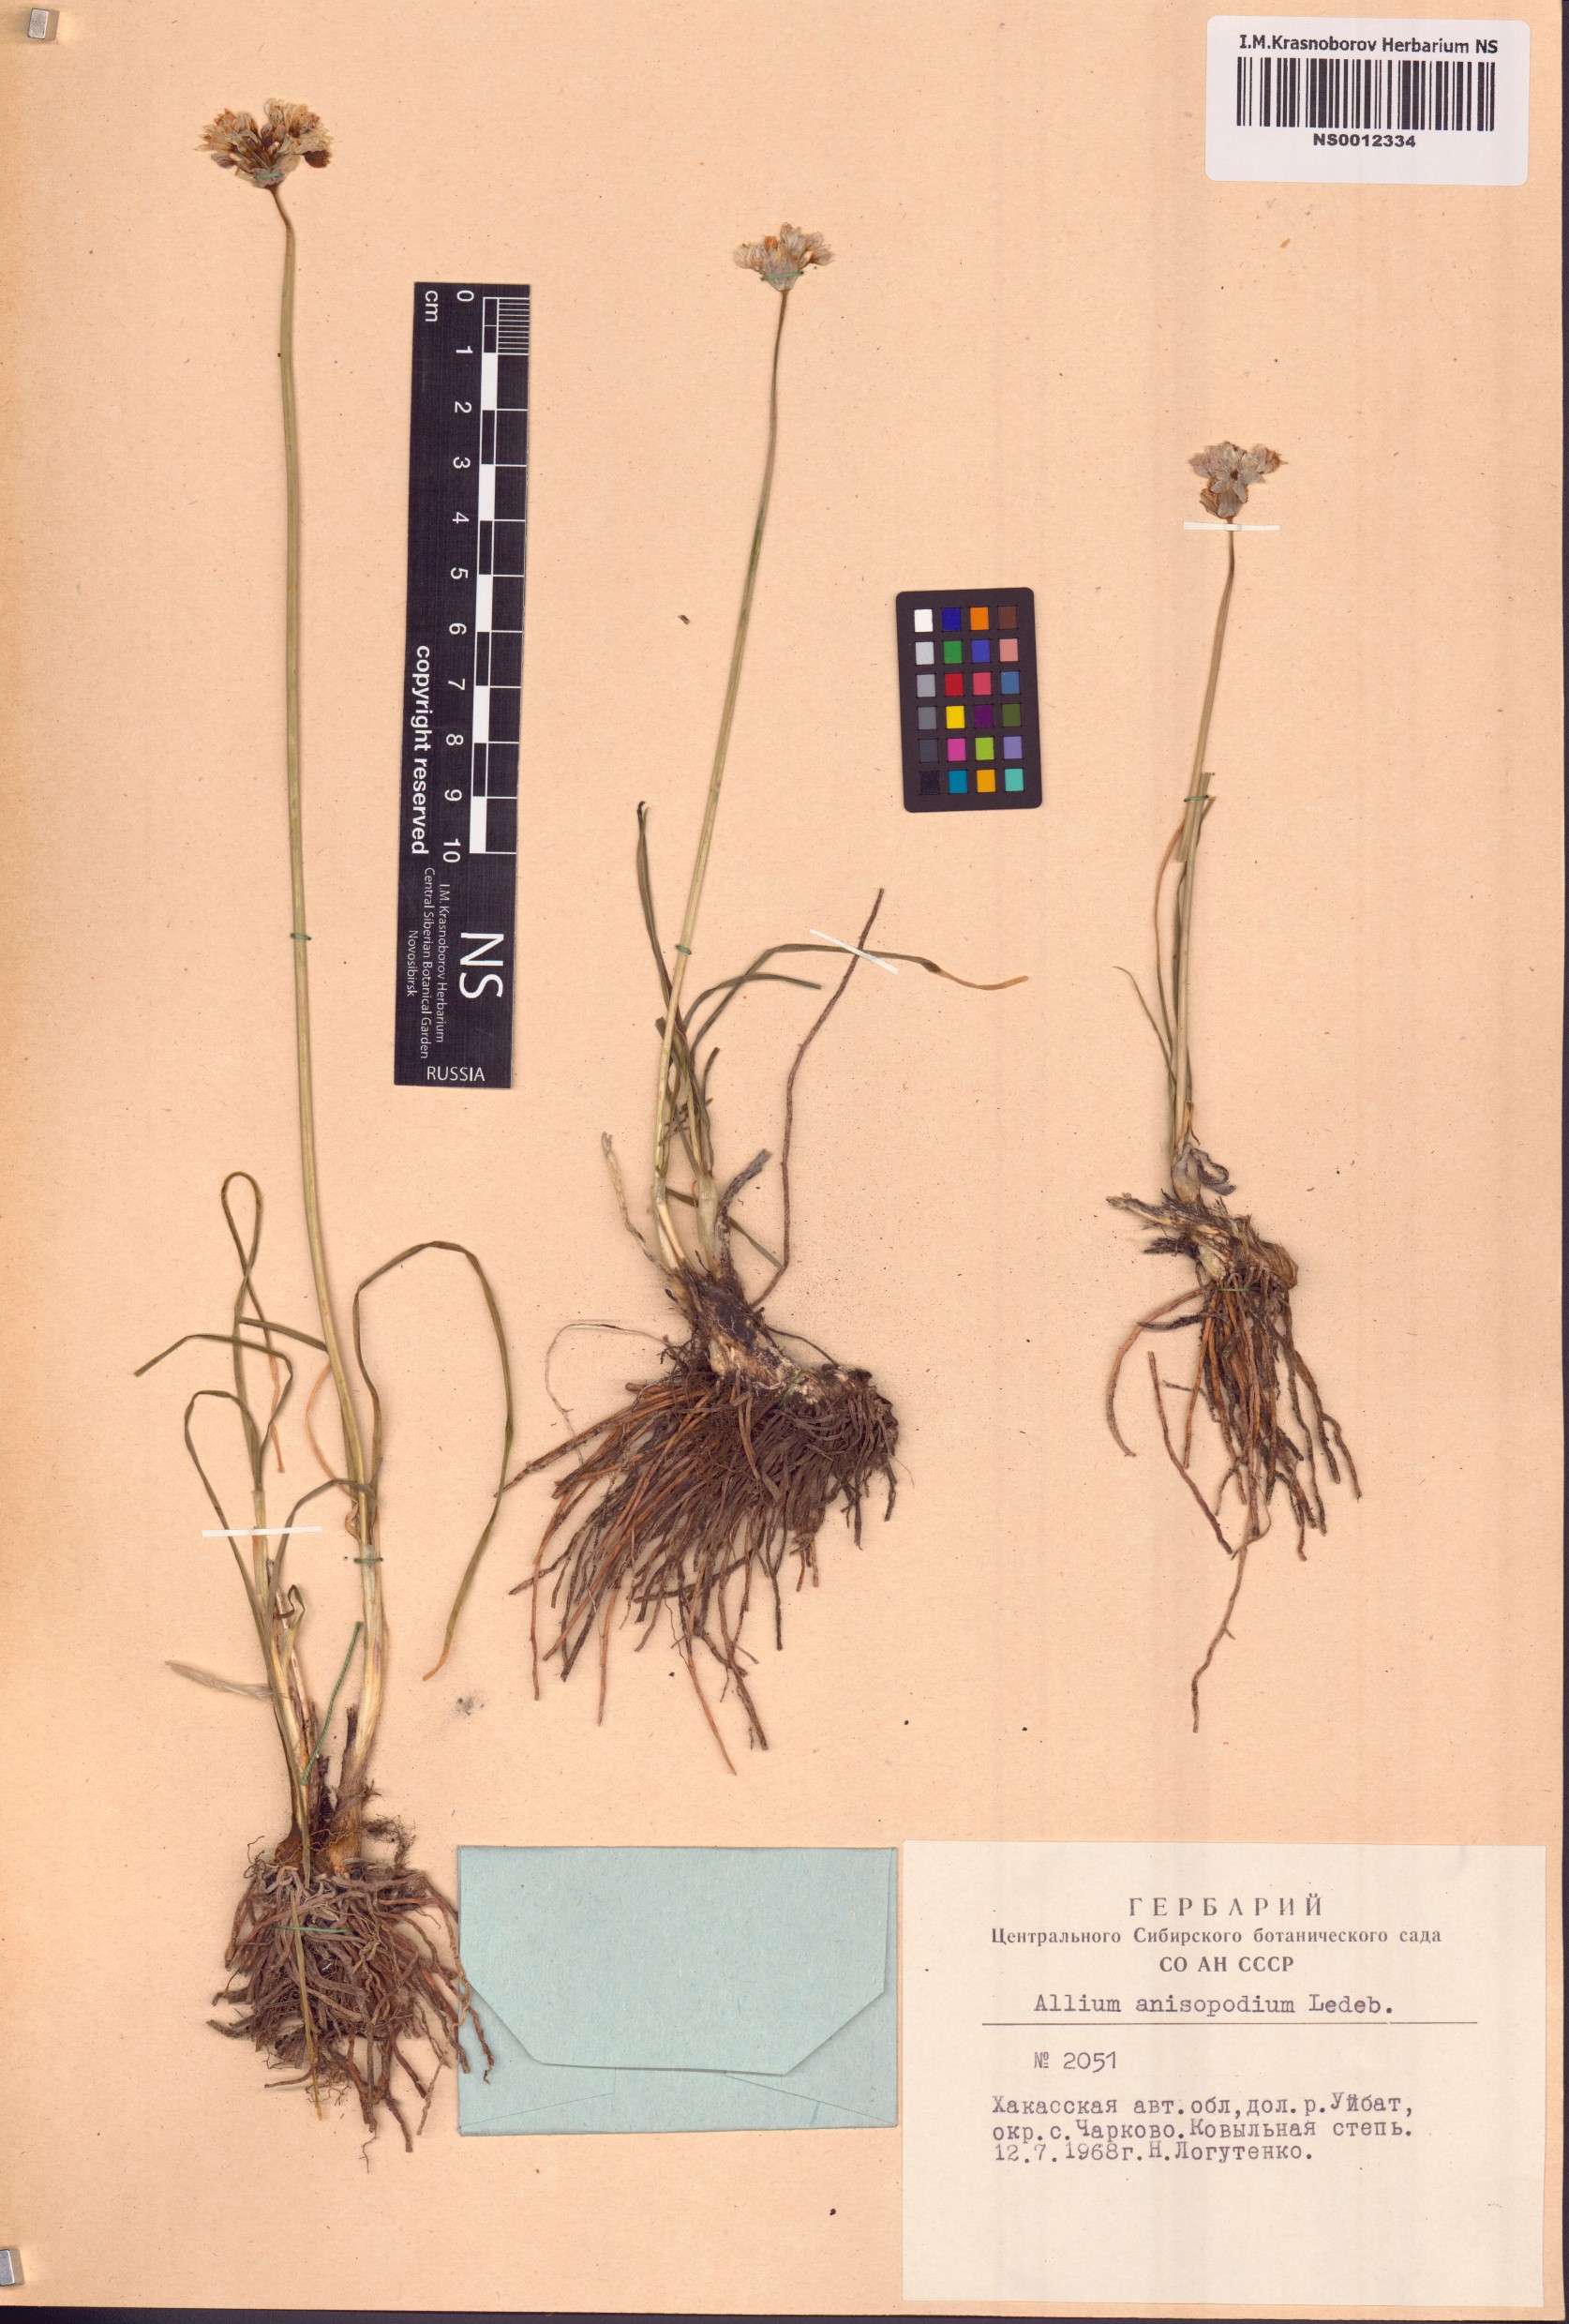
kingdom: Plantae
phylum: Tracheophyta
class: Liliopsida
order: Asparagales
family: Amaryllidaceae
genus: Allium
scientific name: Allium anisopodium
